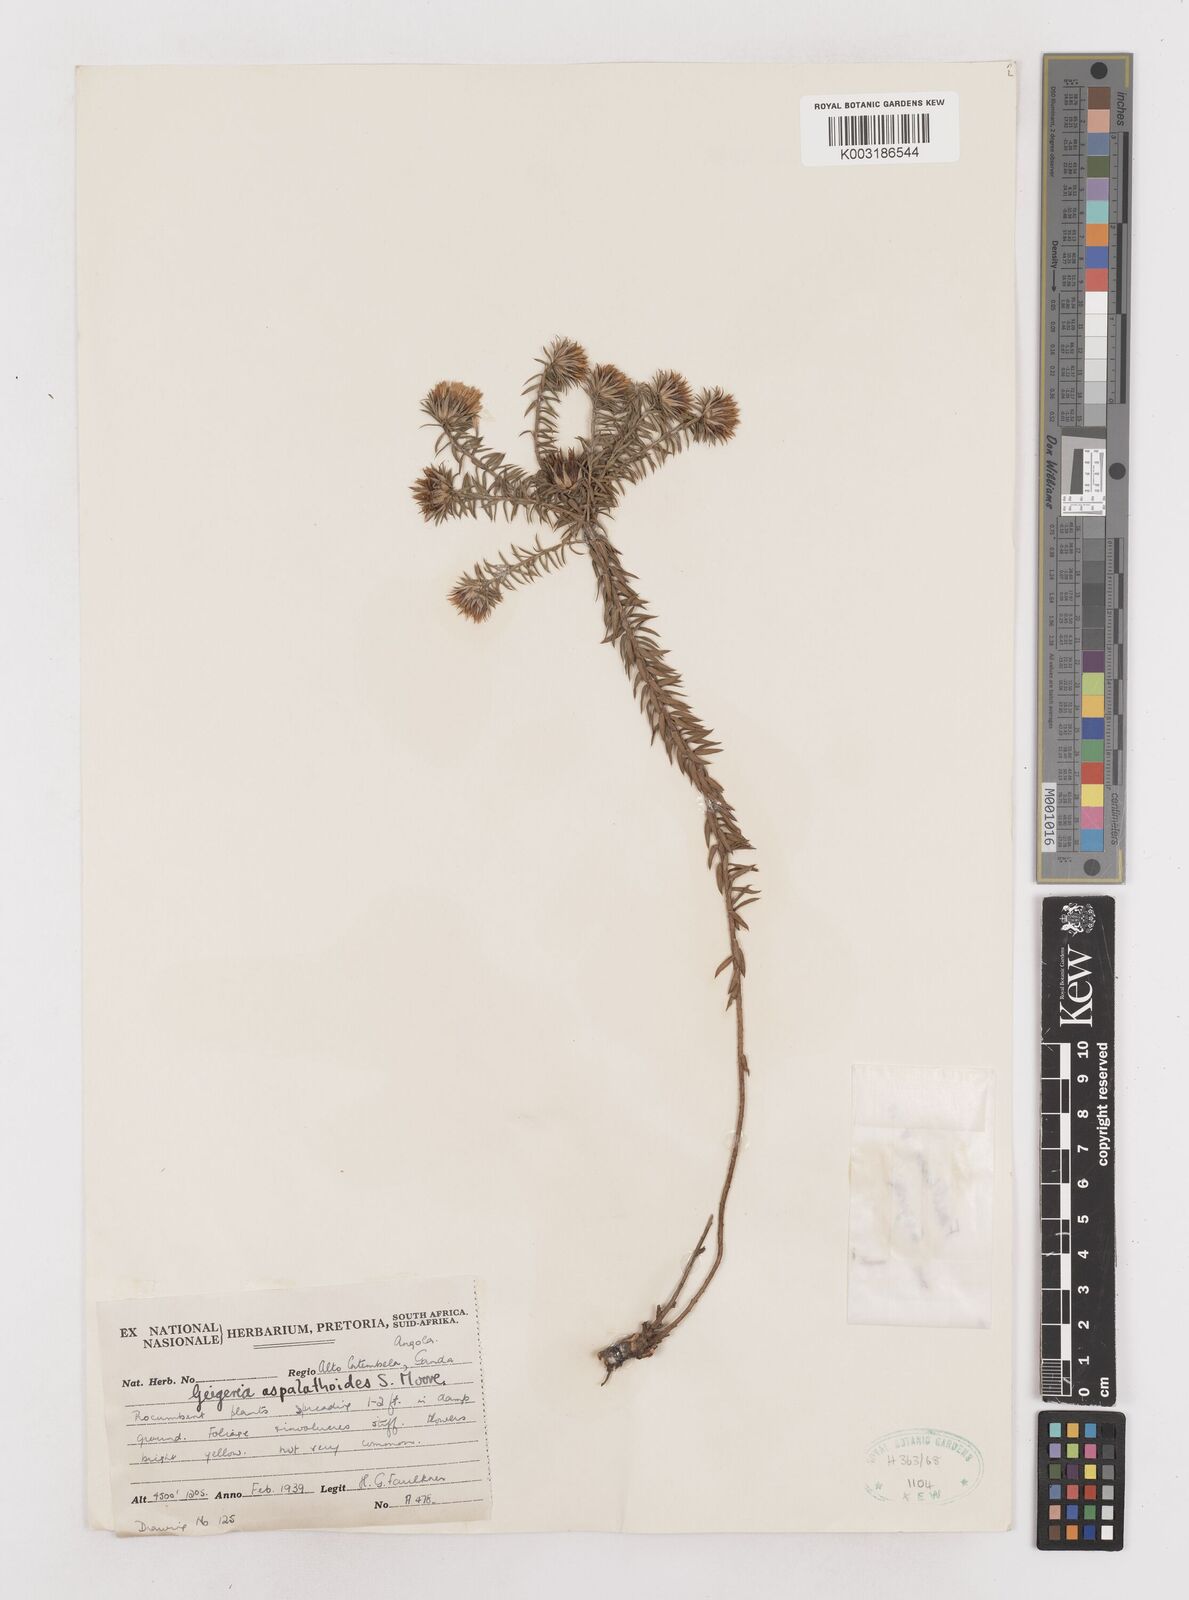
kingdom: Plantae
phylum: Tracheophyta
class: Magnoliopsida
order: Asterales
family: Asteraceae
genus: Geigeria
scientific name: Geigeria aspalathoides
